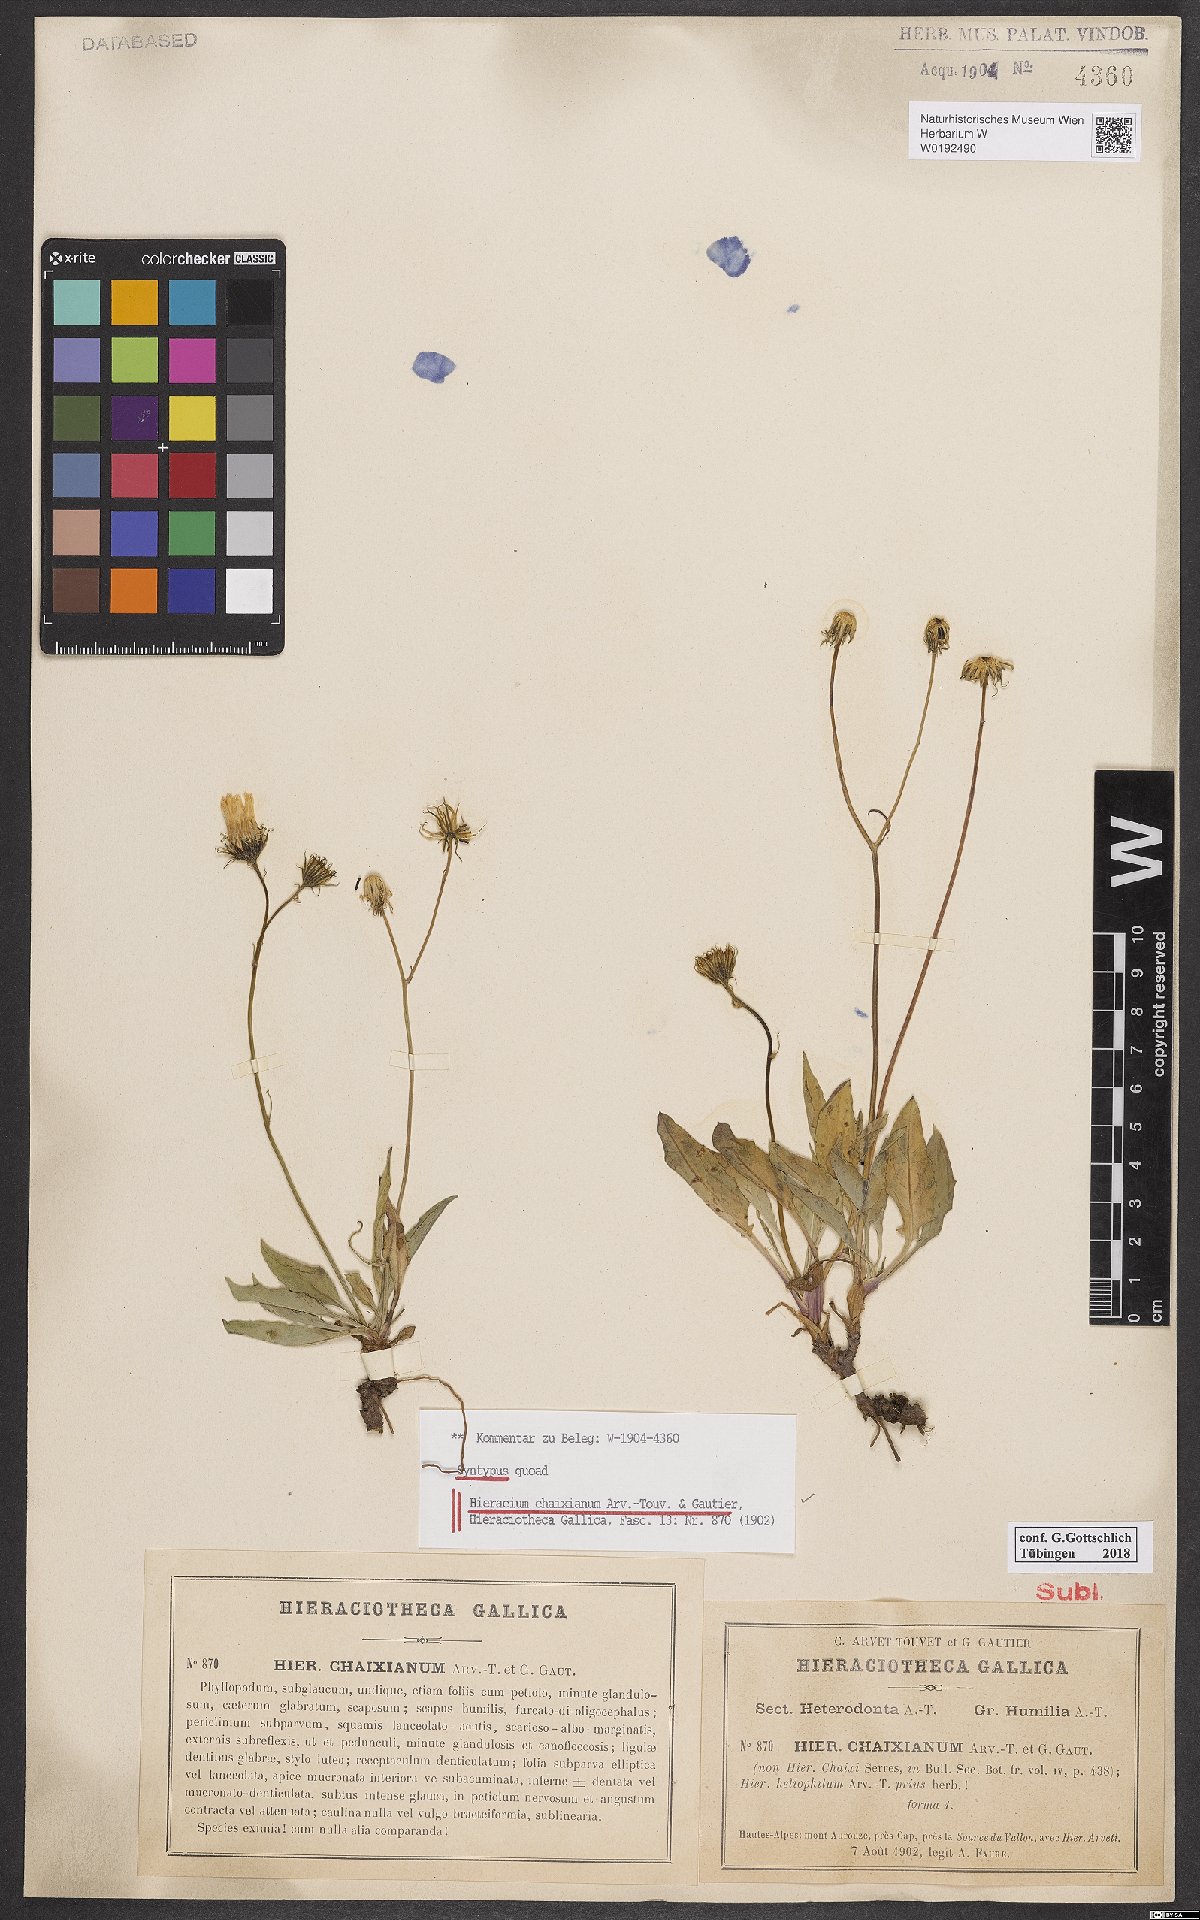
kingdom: Plantae
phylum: Tracheophyta
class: Magnoliopsida
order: Asterales
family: Asteraceae
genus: Hieracium
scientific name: Hieracium chaixianum
